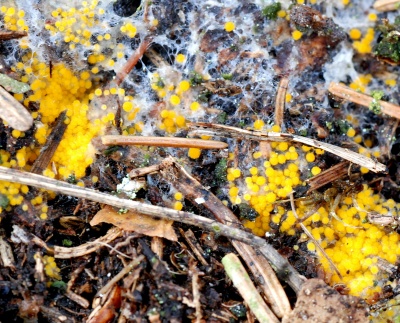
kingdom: Fungi
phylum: Ascomycota
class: Pezizomycetes
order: Pezizales
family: Pyronemataceae
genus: Byssonectria
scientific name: Byssonectria terrestris
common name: hjortebæger
